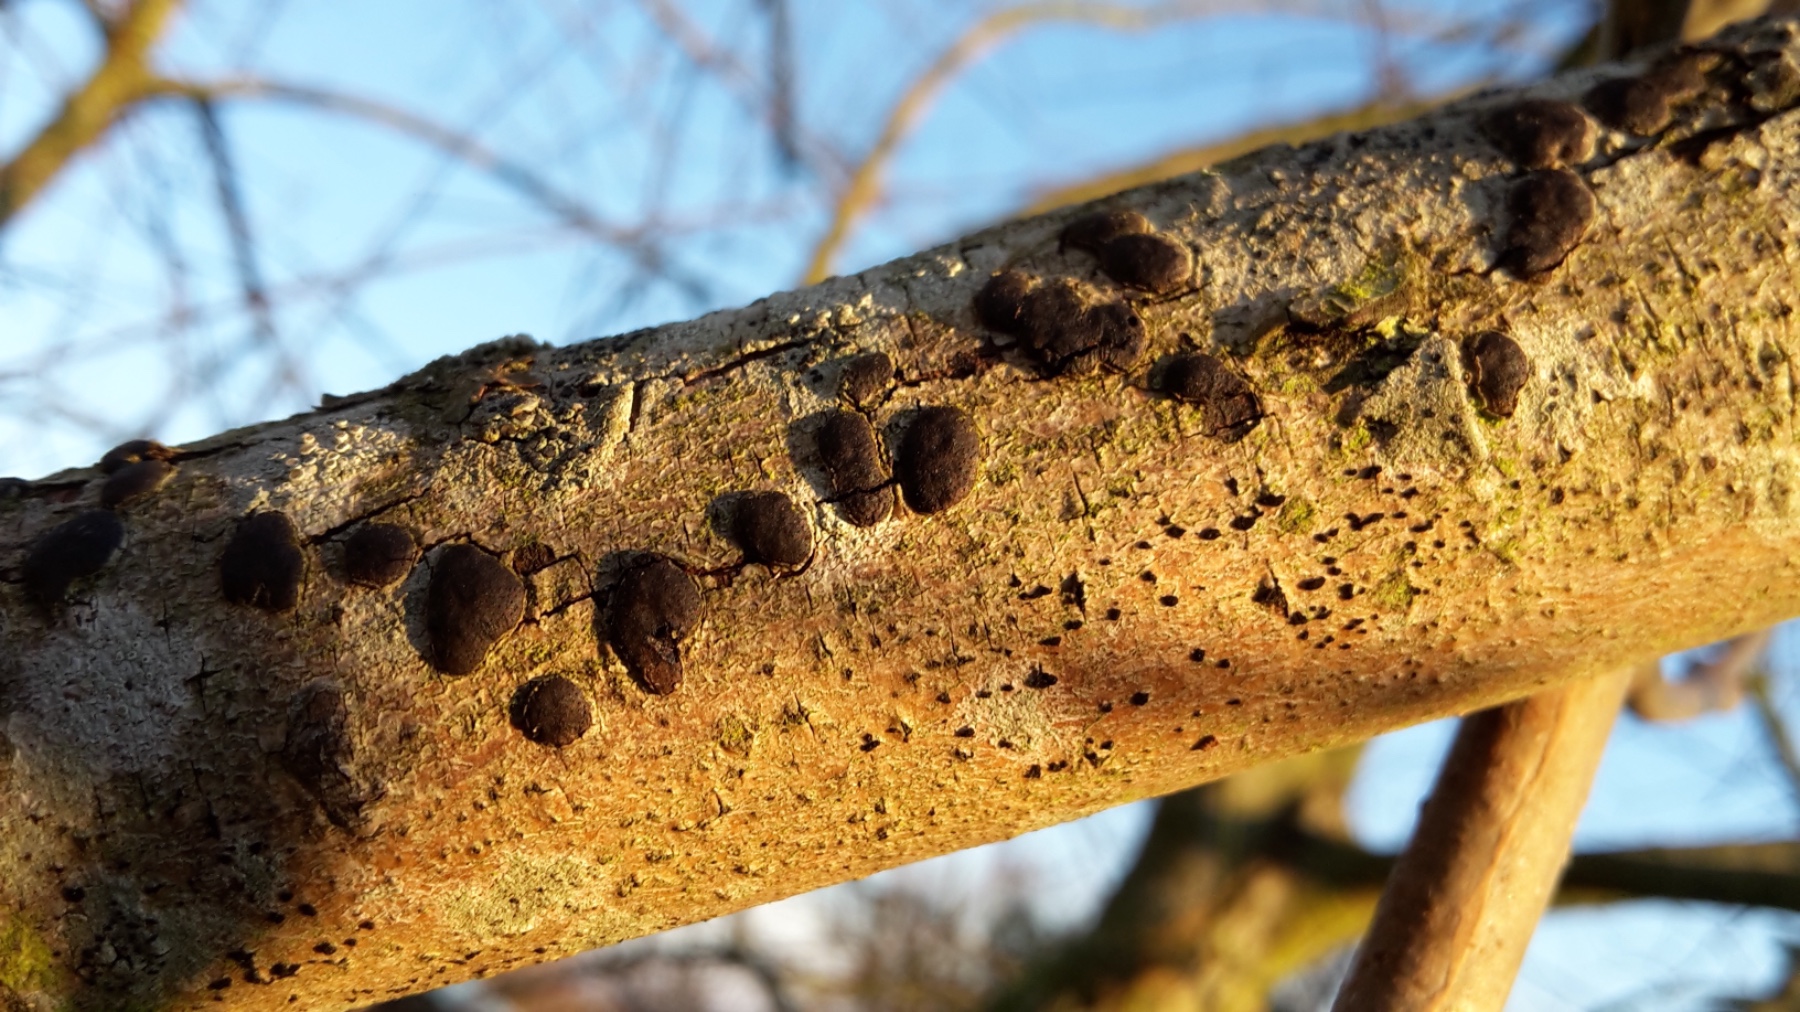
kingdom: Fungi
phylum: Ascomycota
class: Sordariomycetes
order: Xylariales
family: Diatrypaceae
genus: Diatrype
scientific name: Diatrype bullata
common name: pile-kulskorpe
